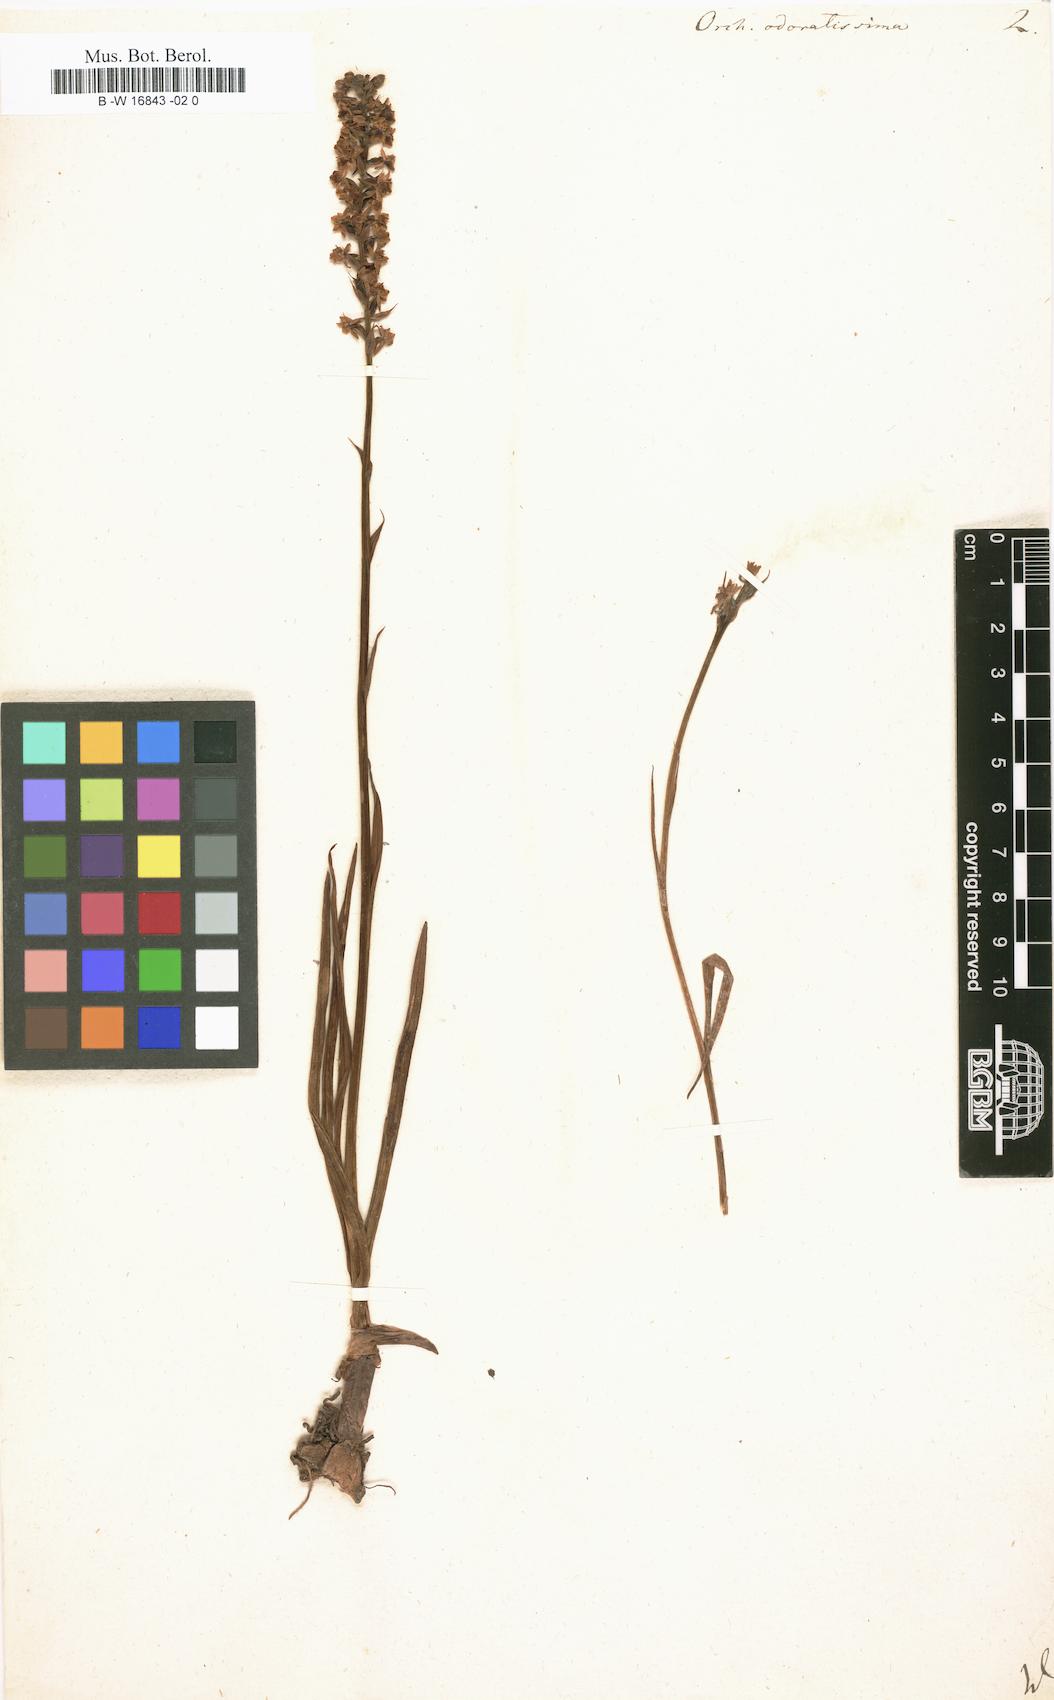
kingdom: Plantae
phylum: Tracheophyta
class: Liliopsida
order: Asparagales
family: Orchidaceae
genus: Gymnadenia
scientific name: Gymnadenia odoratissima
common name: Scented gymnadenia
